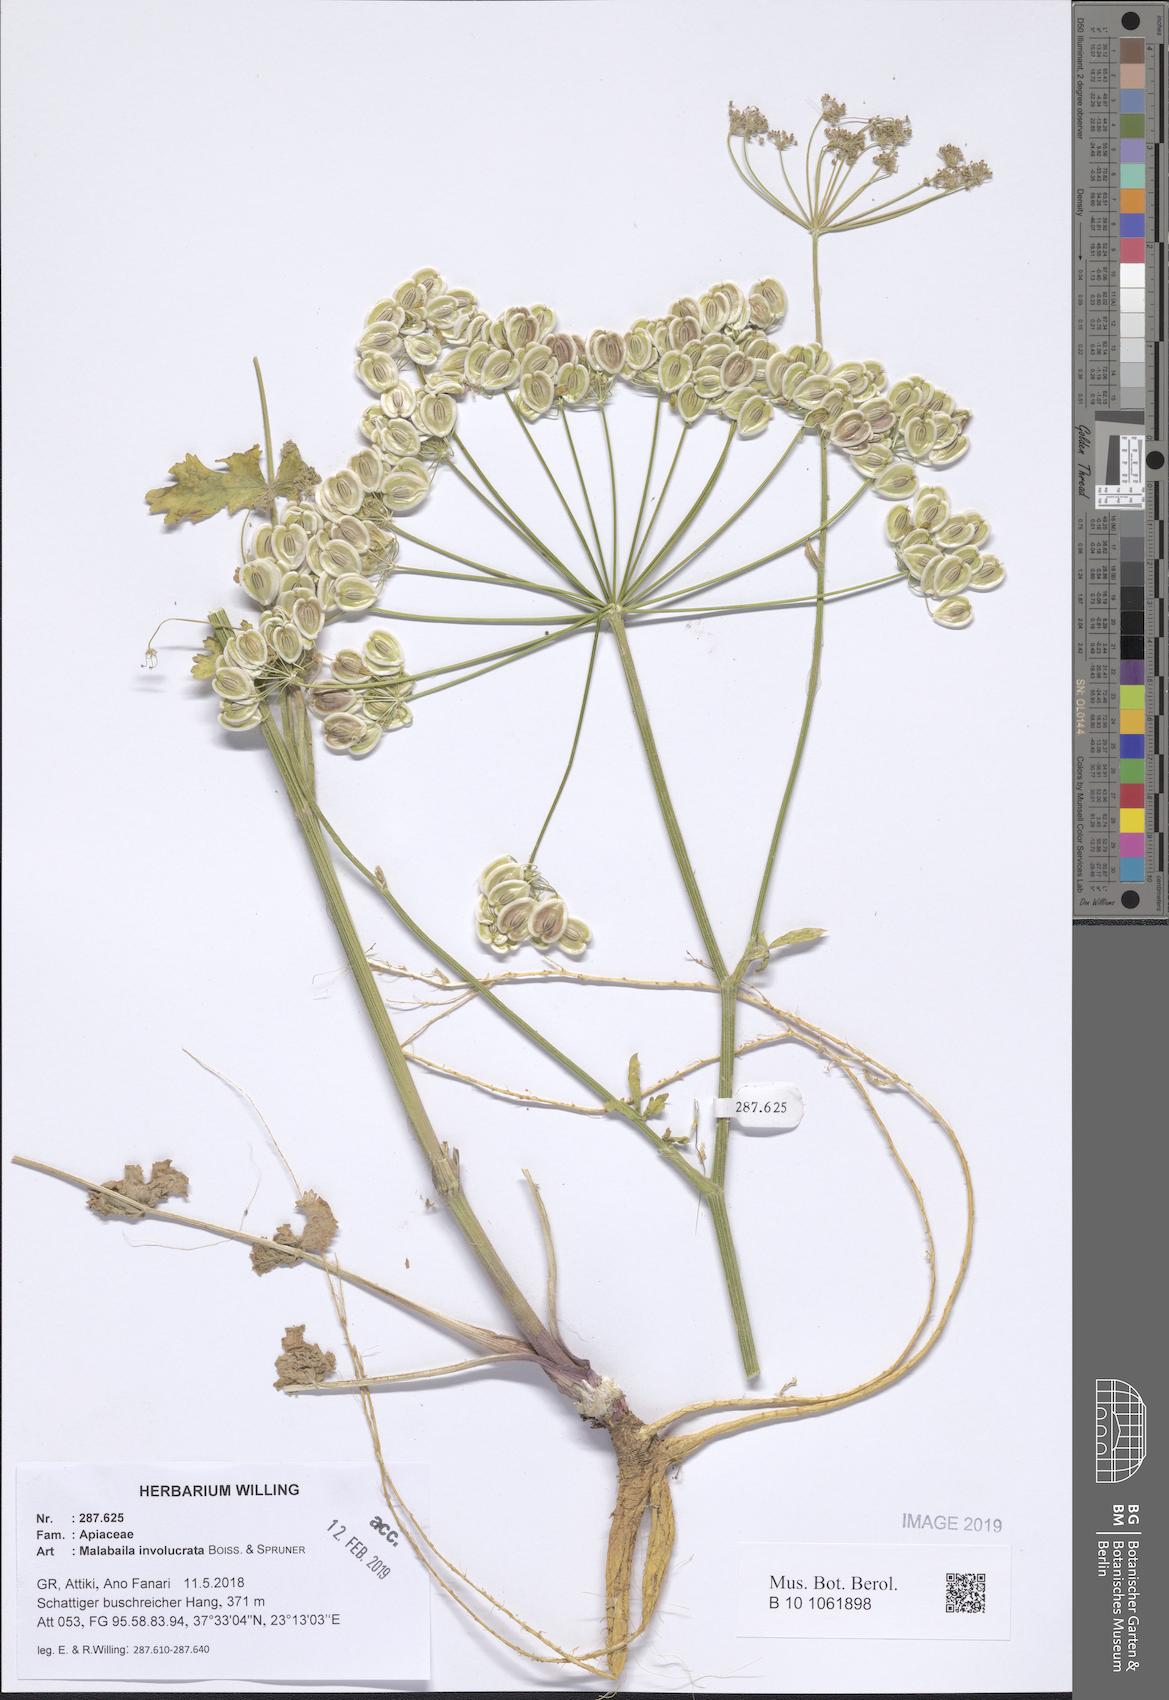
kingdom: Plantae
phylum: Tracheophyta
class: Magnoliopsida
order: Apiales
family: Apiaceae
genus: Leiotulus
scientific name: Leiotulus involucratus
